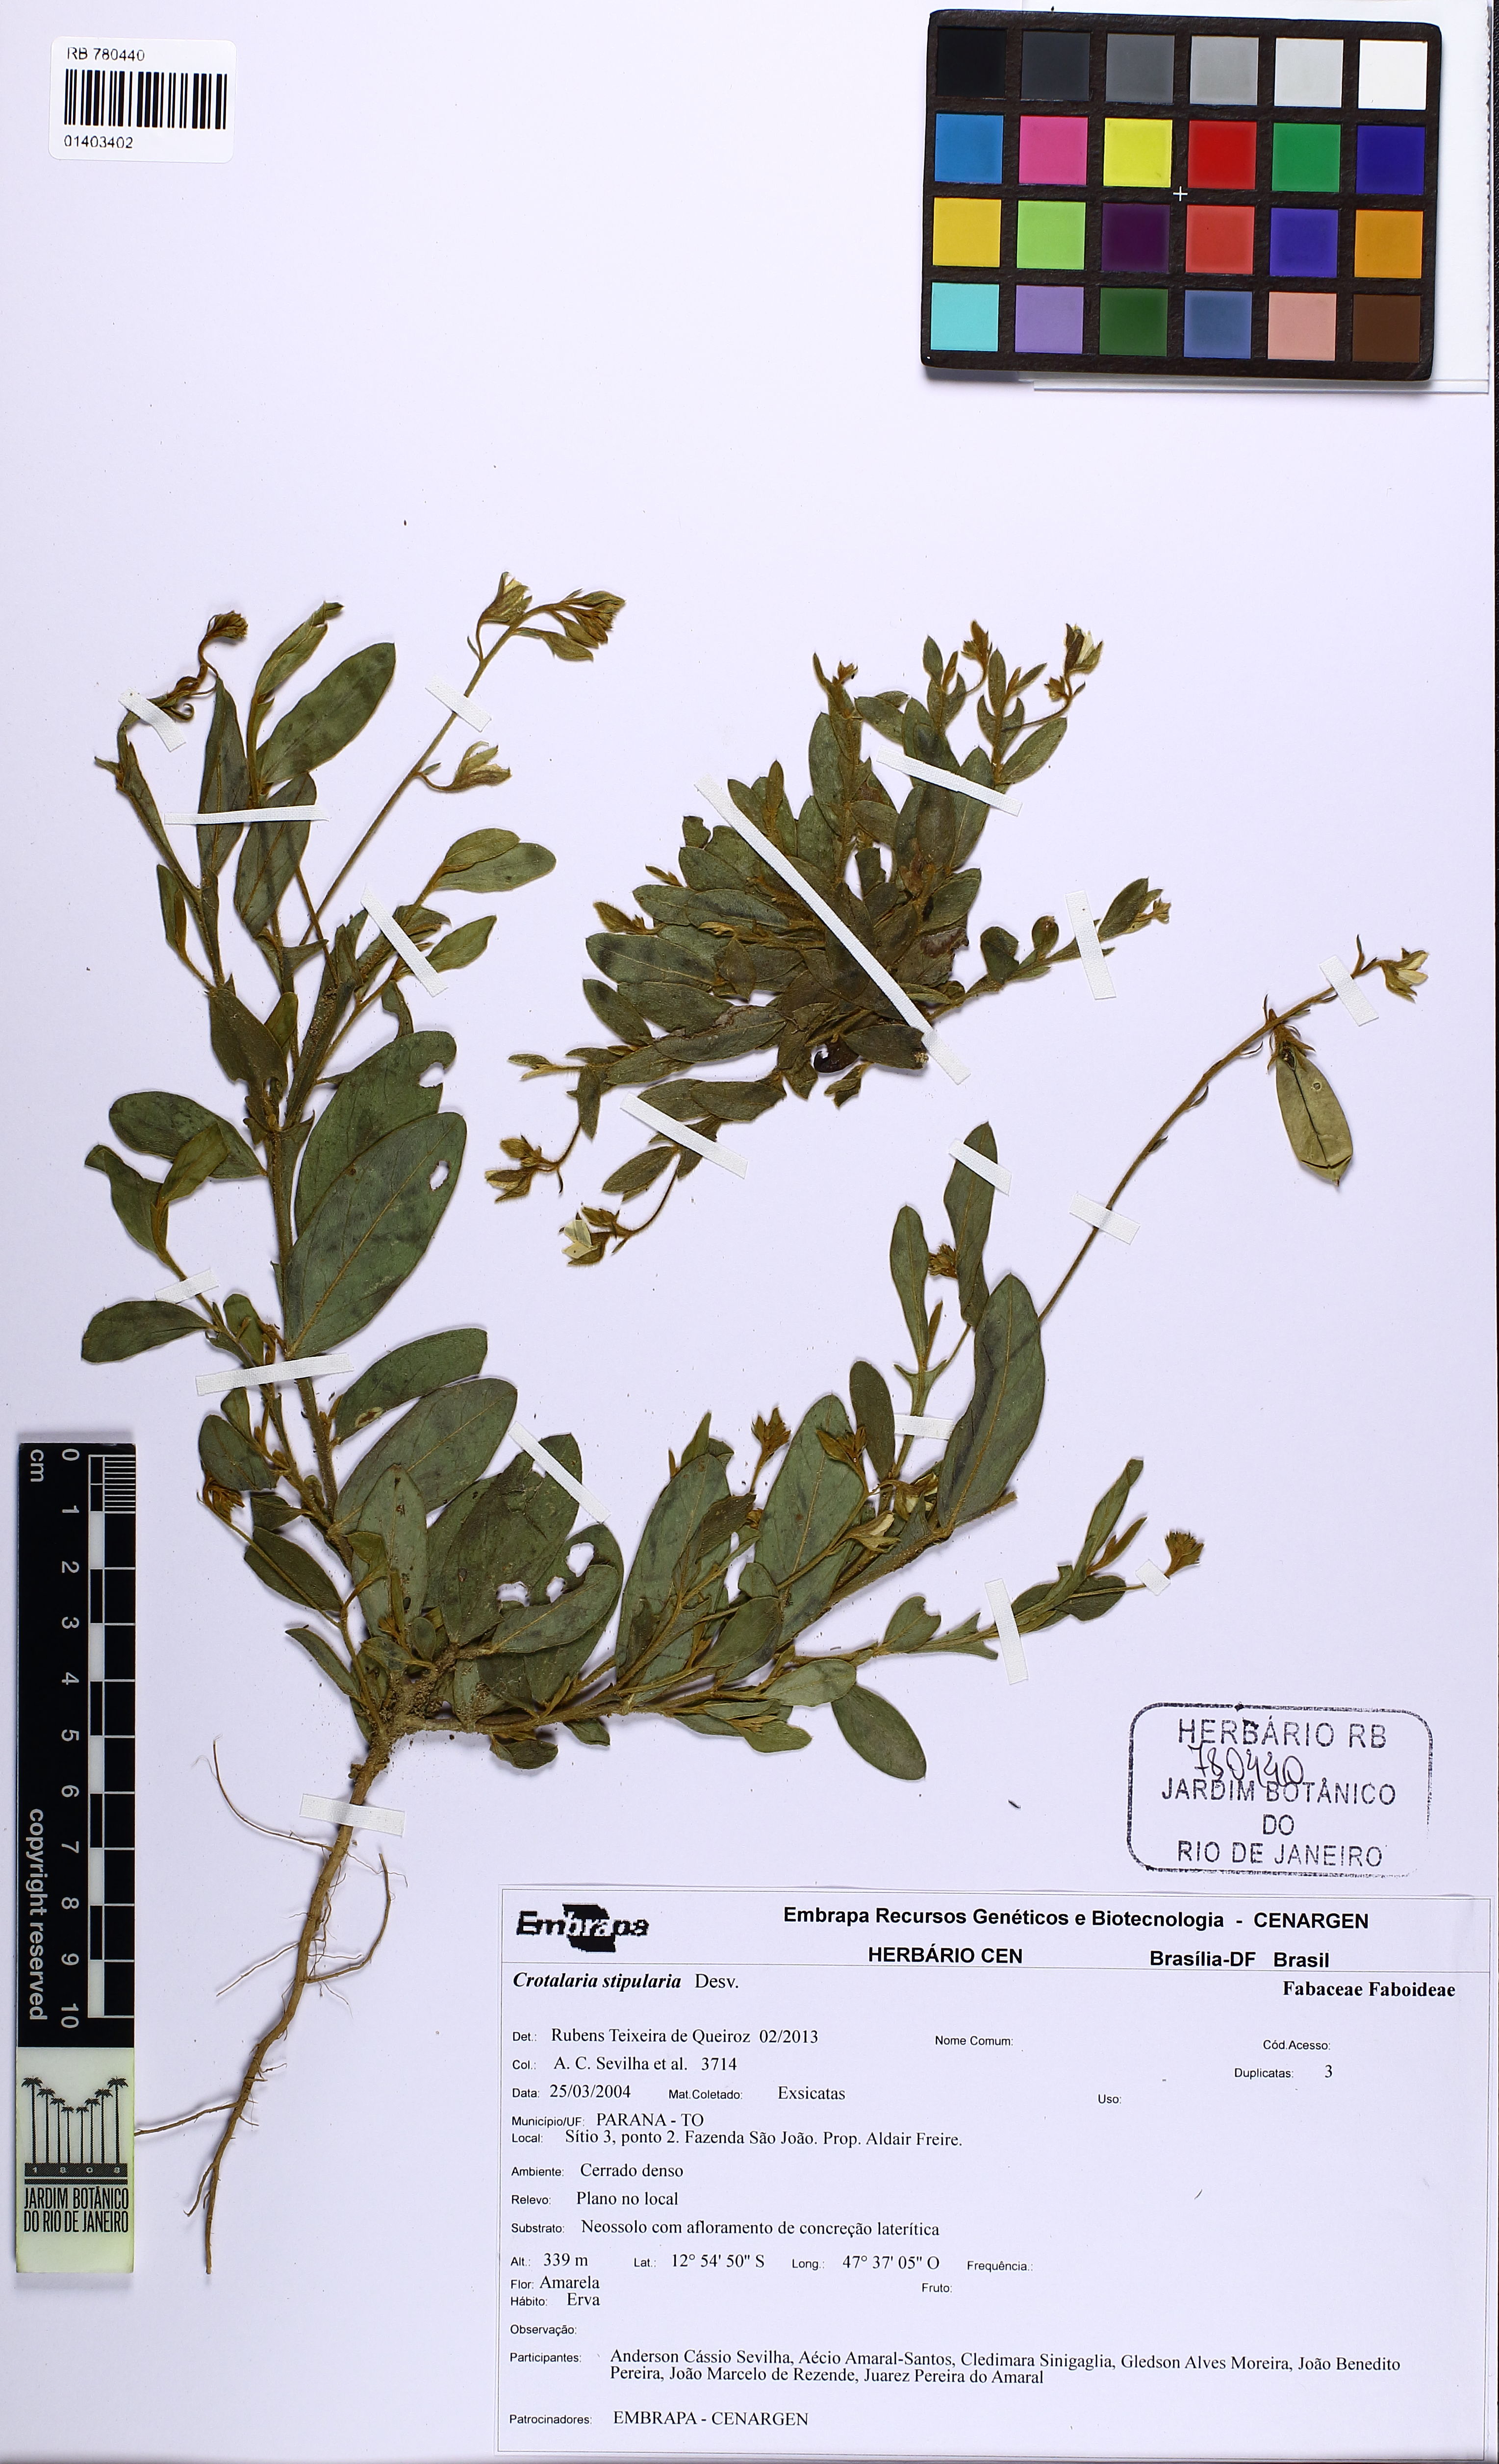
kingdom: Plantae
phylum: Tracheophyta
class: Magnoliopsida
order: Fabales
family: Fabaceae
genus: Crotalaria
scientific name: Crotalaria stipularia
